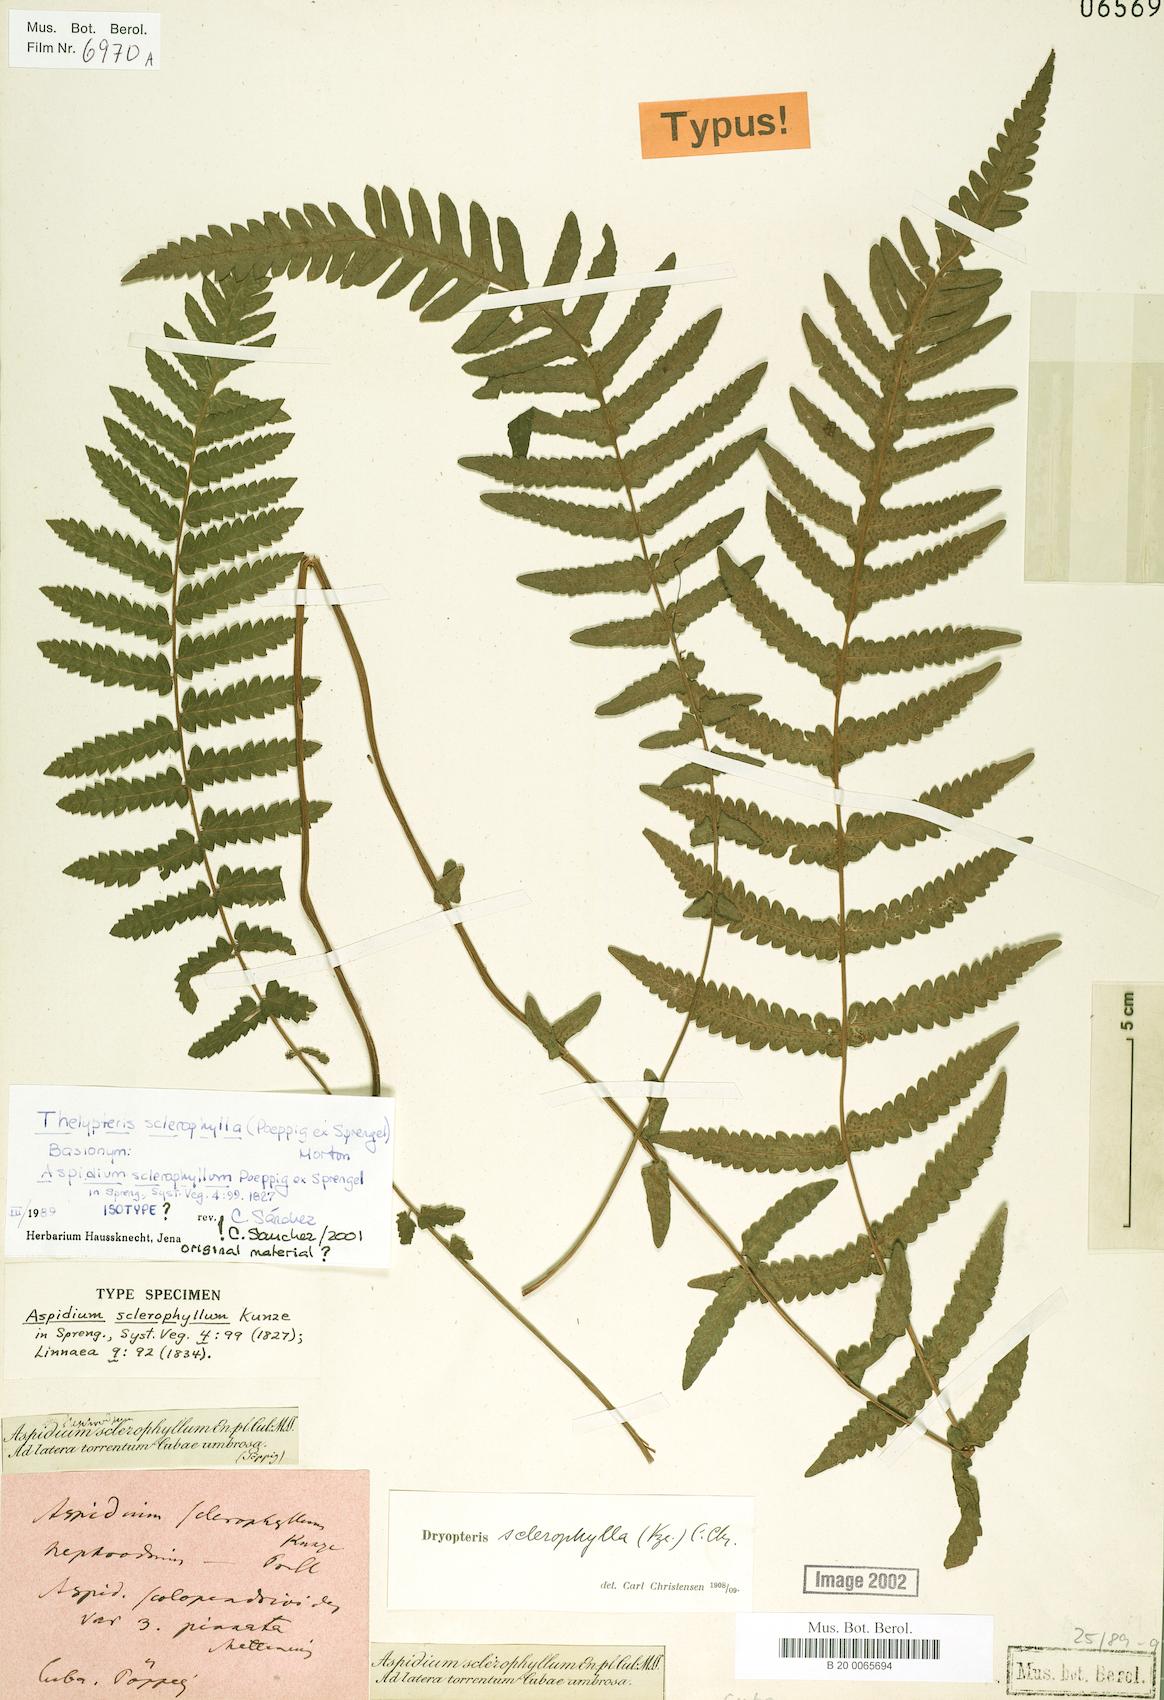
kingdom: Plantae
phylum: Tracheophyta
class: Polypodiopsida
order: Polypodiales
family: Thelypteridaceae
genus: Goniopteris
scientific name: Goniopteris sclerophylla
